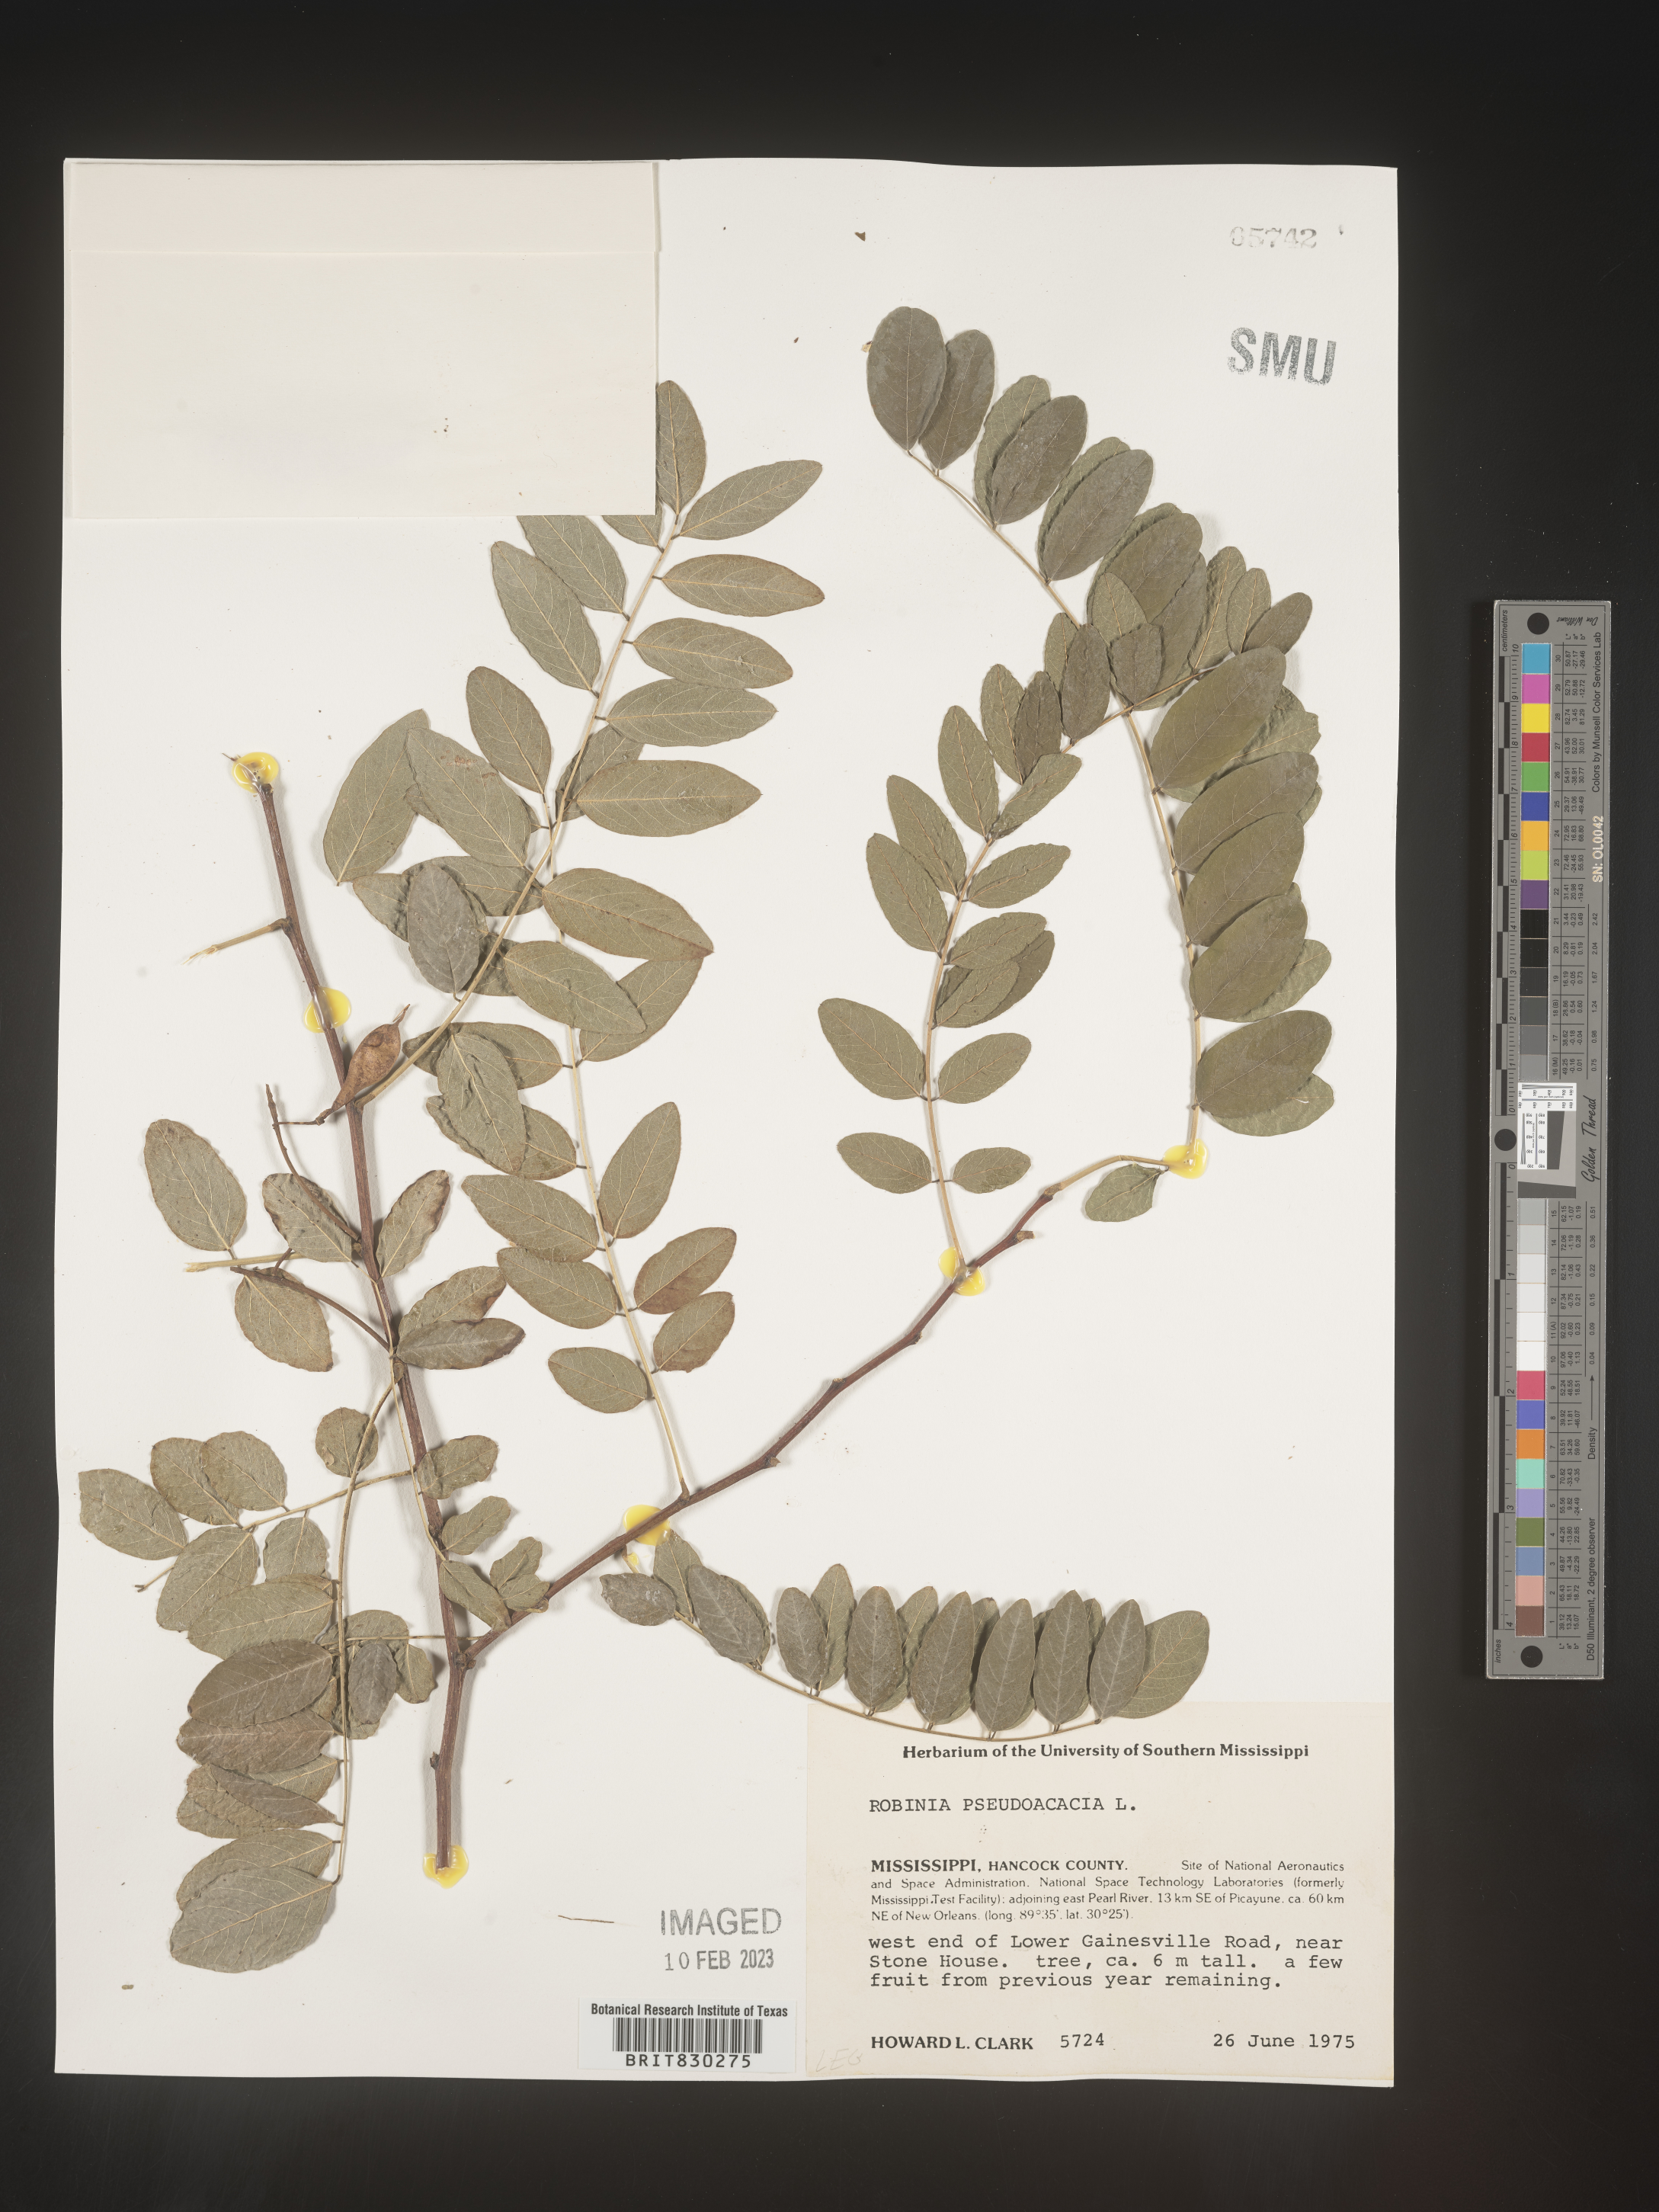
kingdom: Plantae
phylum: Tracheophyta
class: Magnoliopsida
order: Fabales
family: Fabaceae
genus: Robinia
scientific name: Robinia pseudoacacia
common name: Black locust
